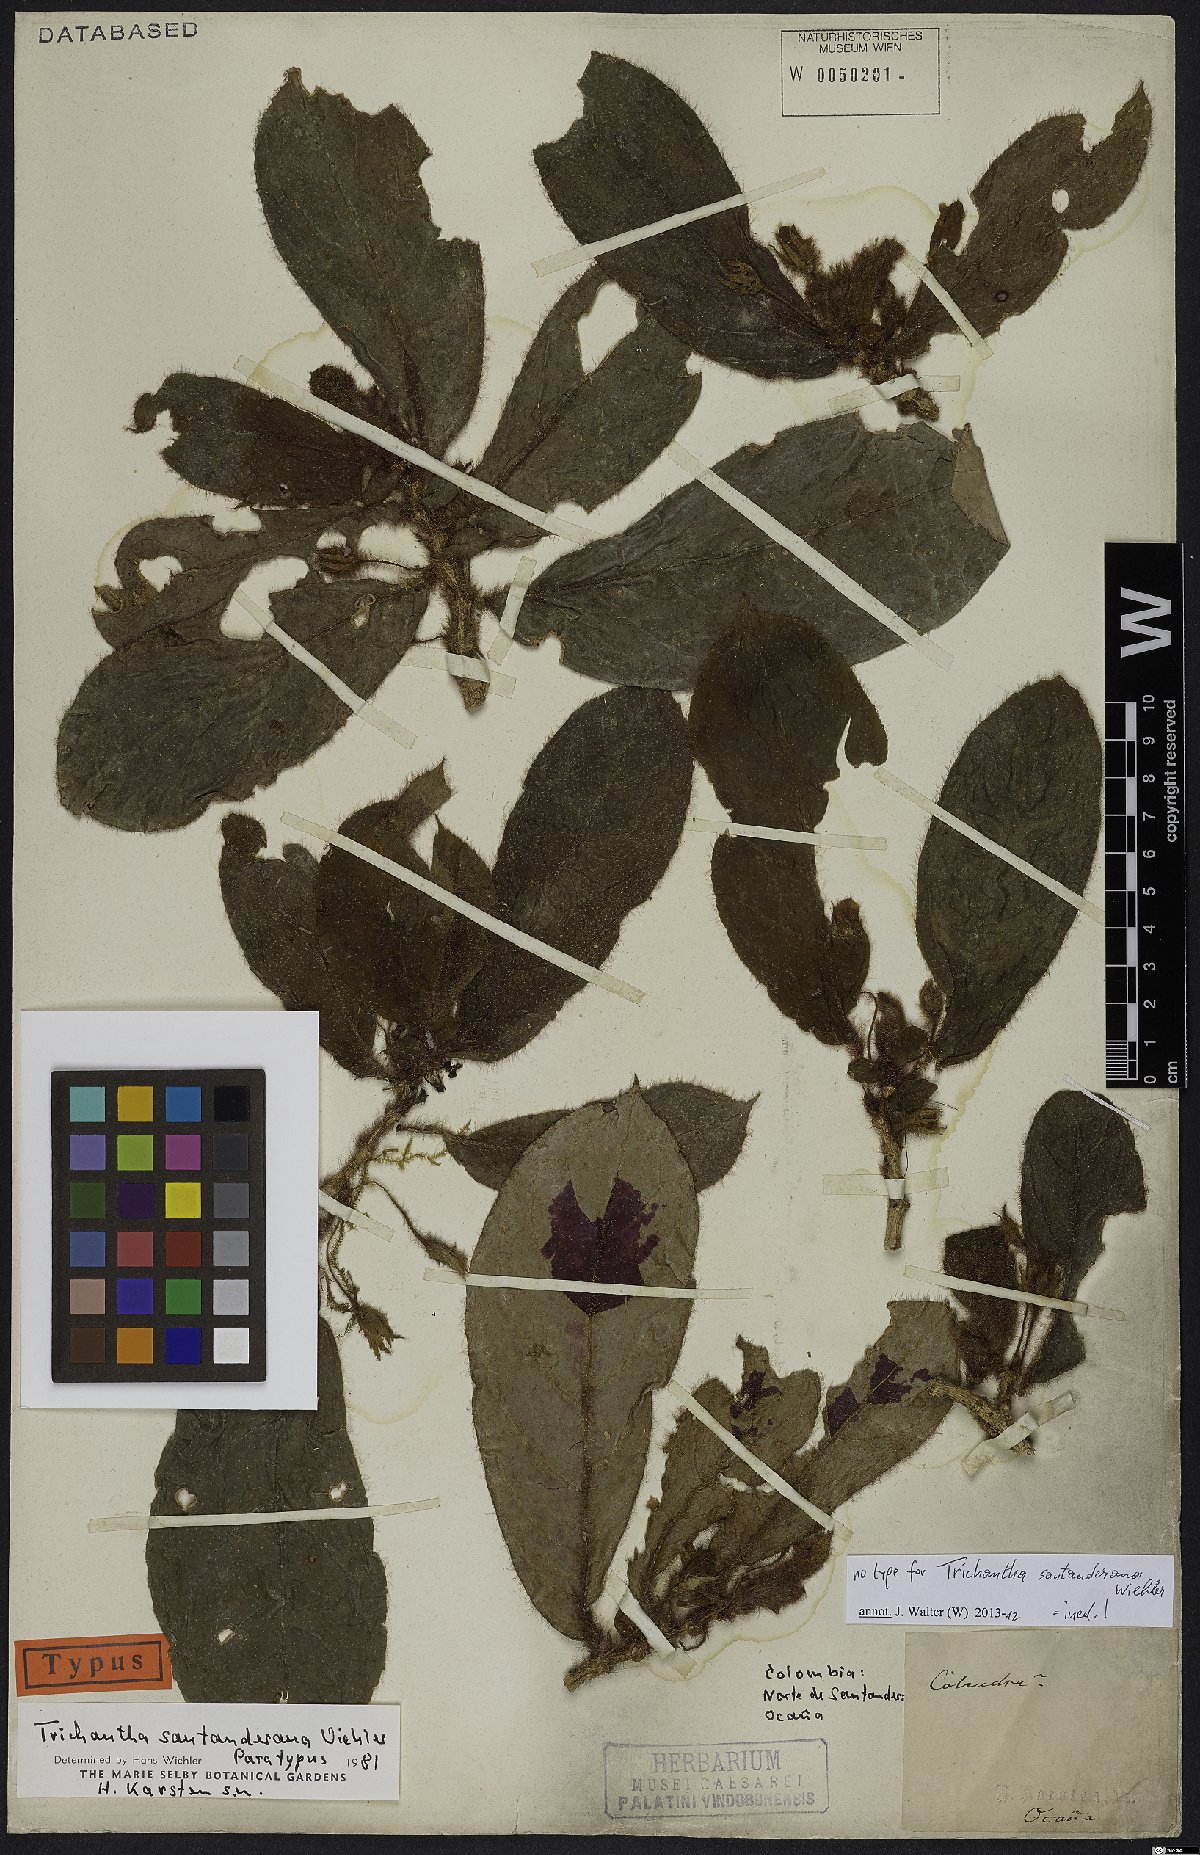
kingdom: Plantae
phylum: Tracheophyta
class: Magnoliopsida
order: Lamiales
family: Gesneriaceae
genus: Columnea
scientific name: Columnea
